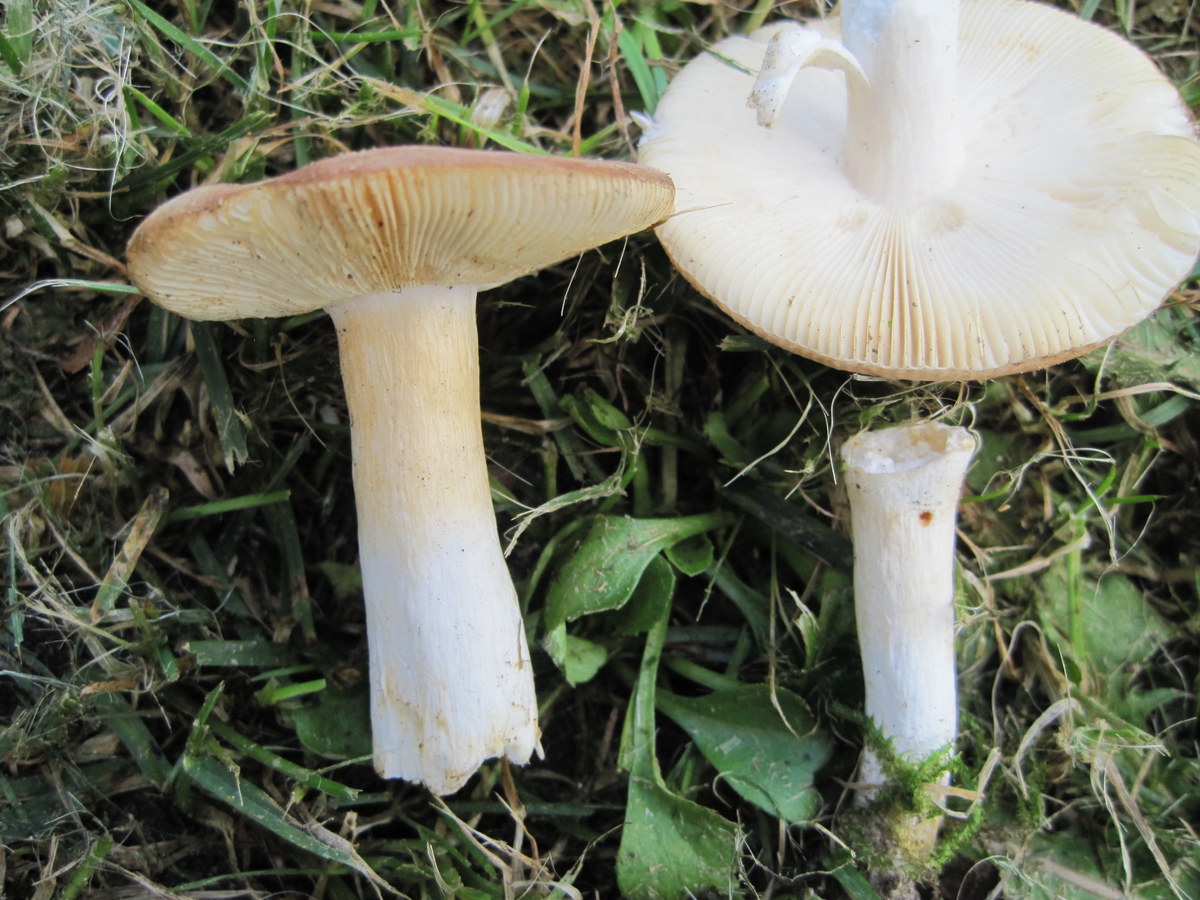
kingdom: Fungi
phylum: Basidiomycota
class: Agaricomycetes
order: Russulales
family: Russulaceae
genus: Russula
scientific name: Russula versicolor
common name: foranderlig skørhat
